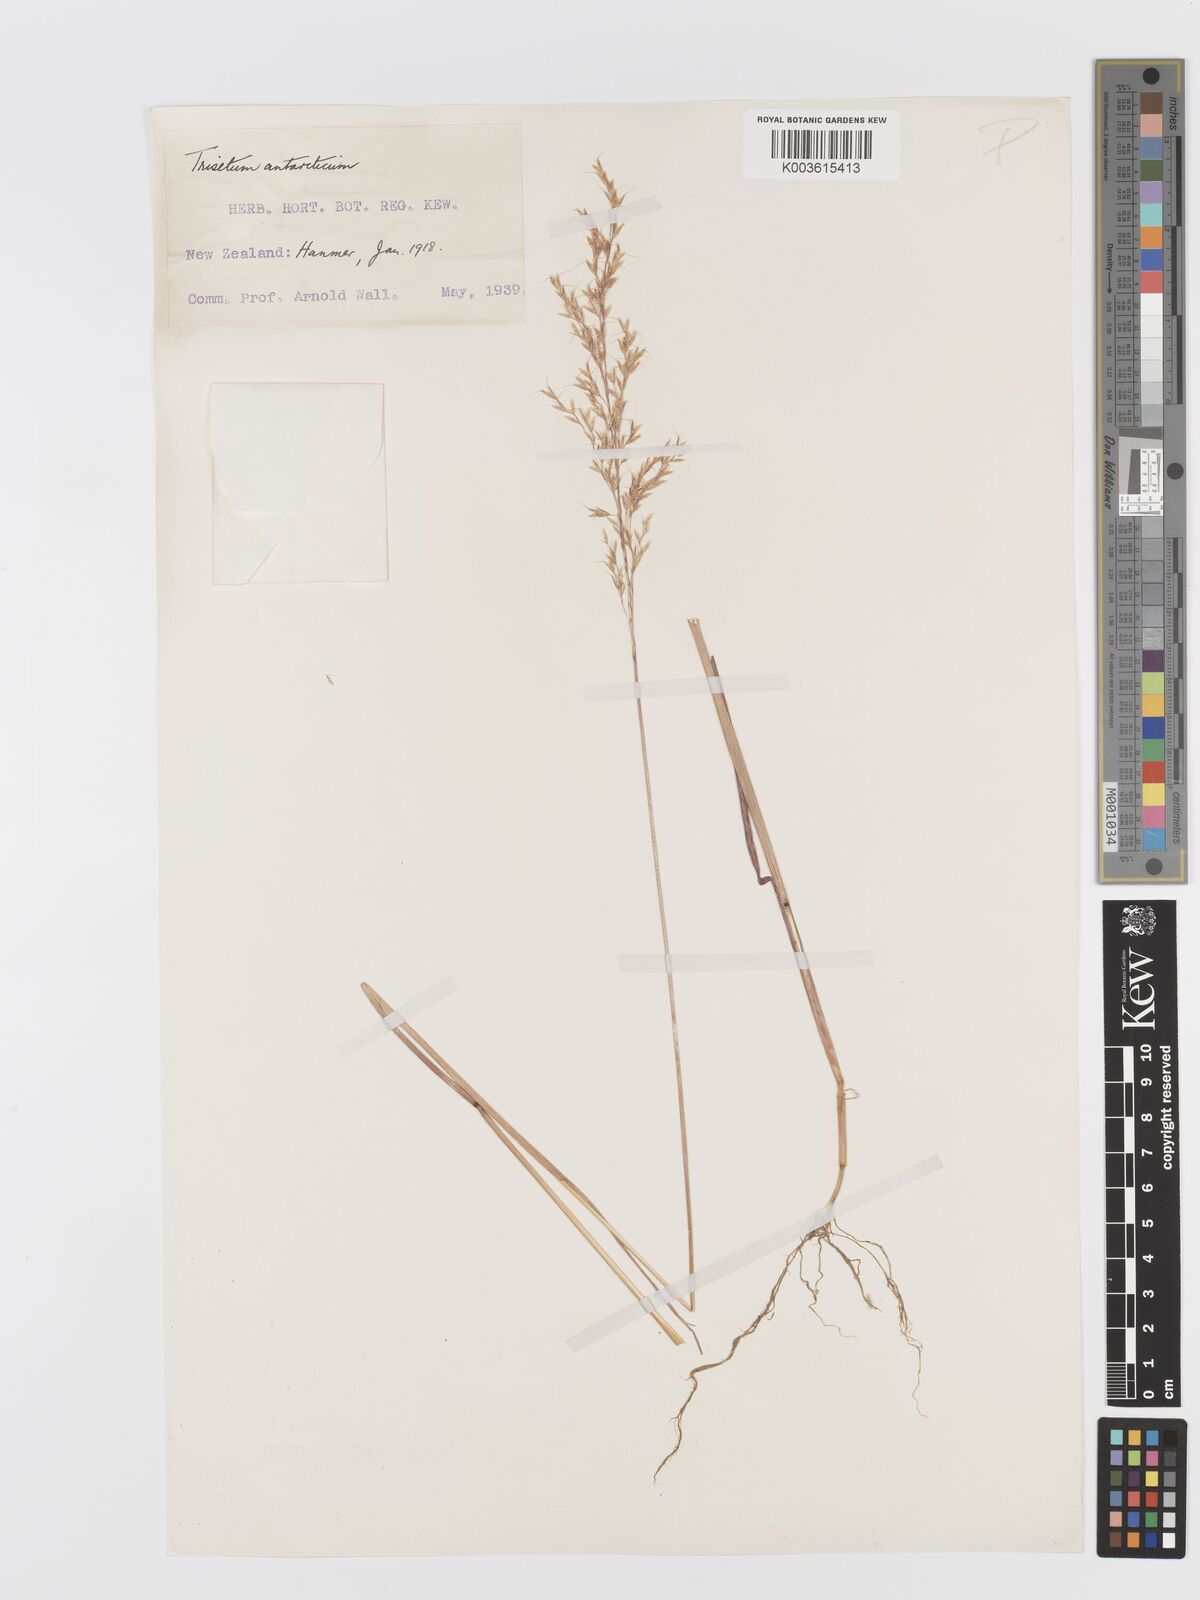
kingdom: Plantae
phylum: Tracheophyta
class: Liliopsida
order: Poales
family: Poaceae
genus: Koeleria
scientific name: Koeleria antarctica
